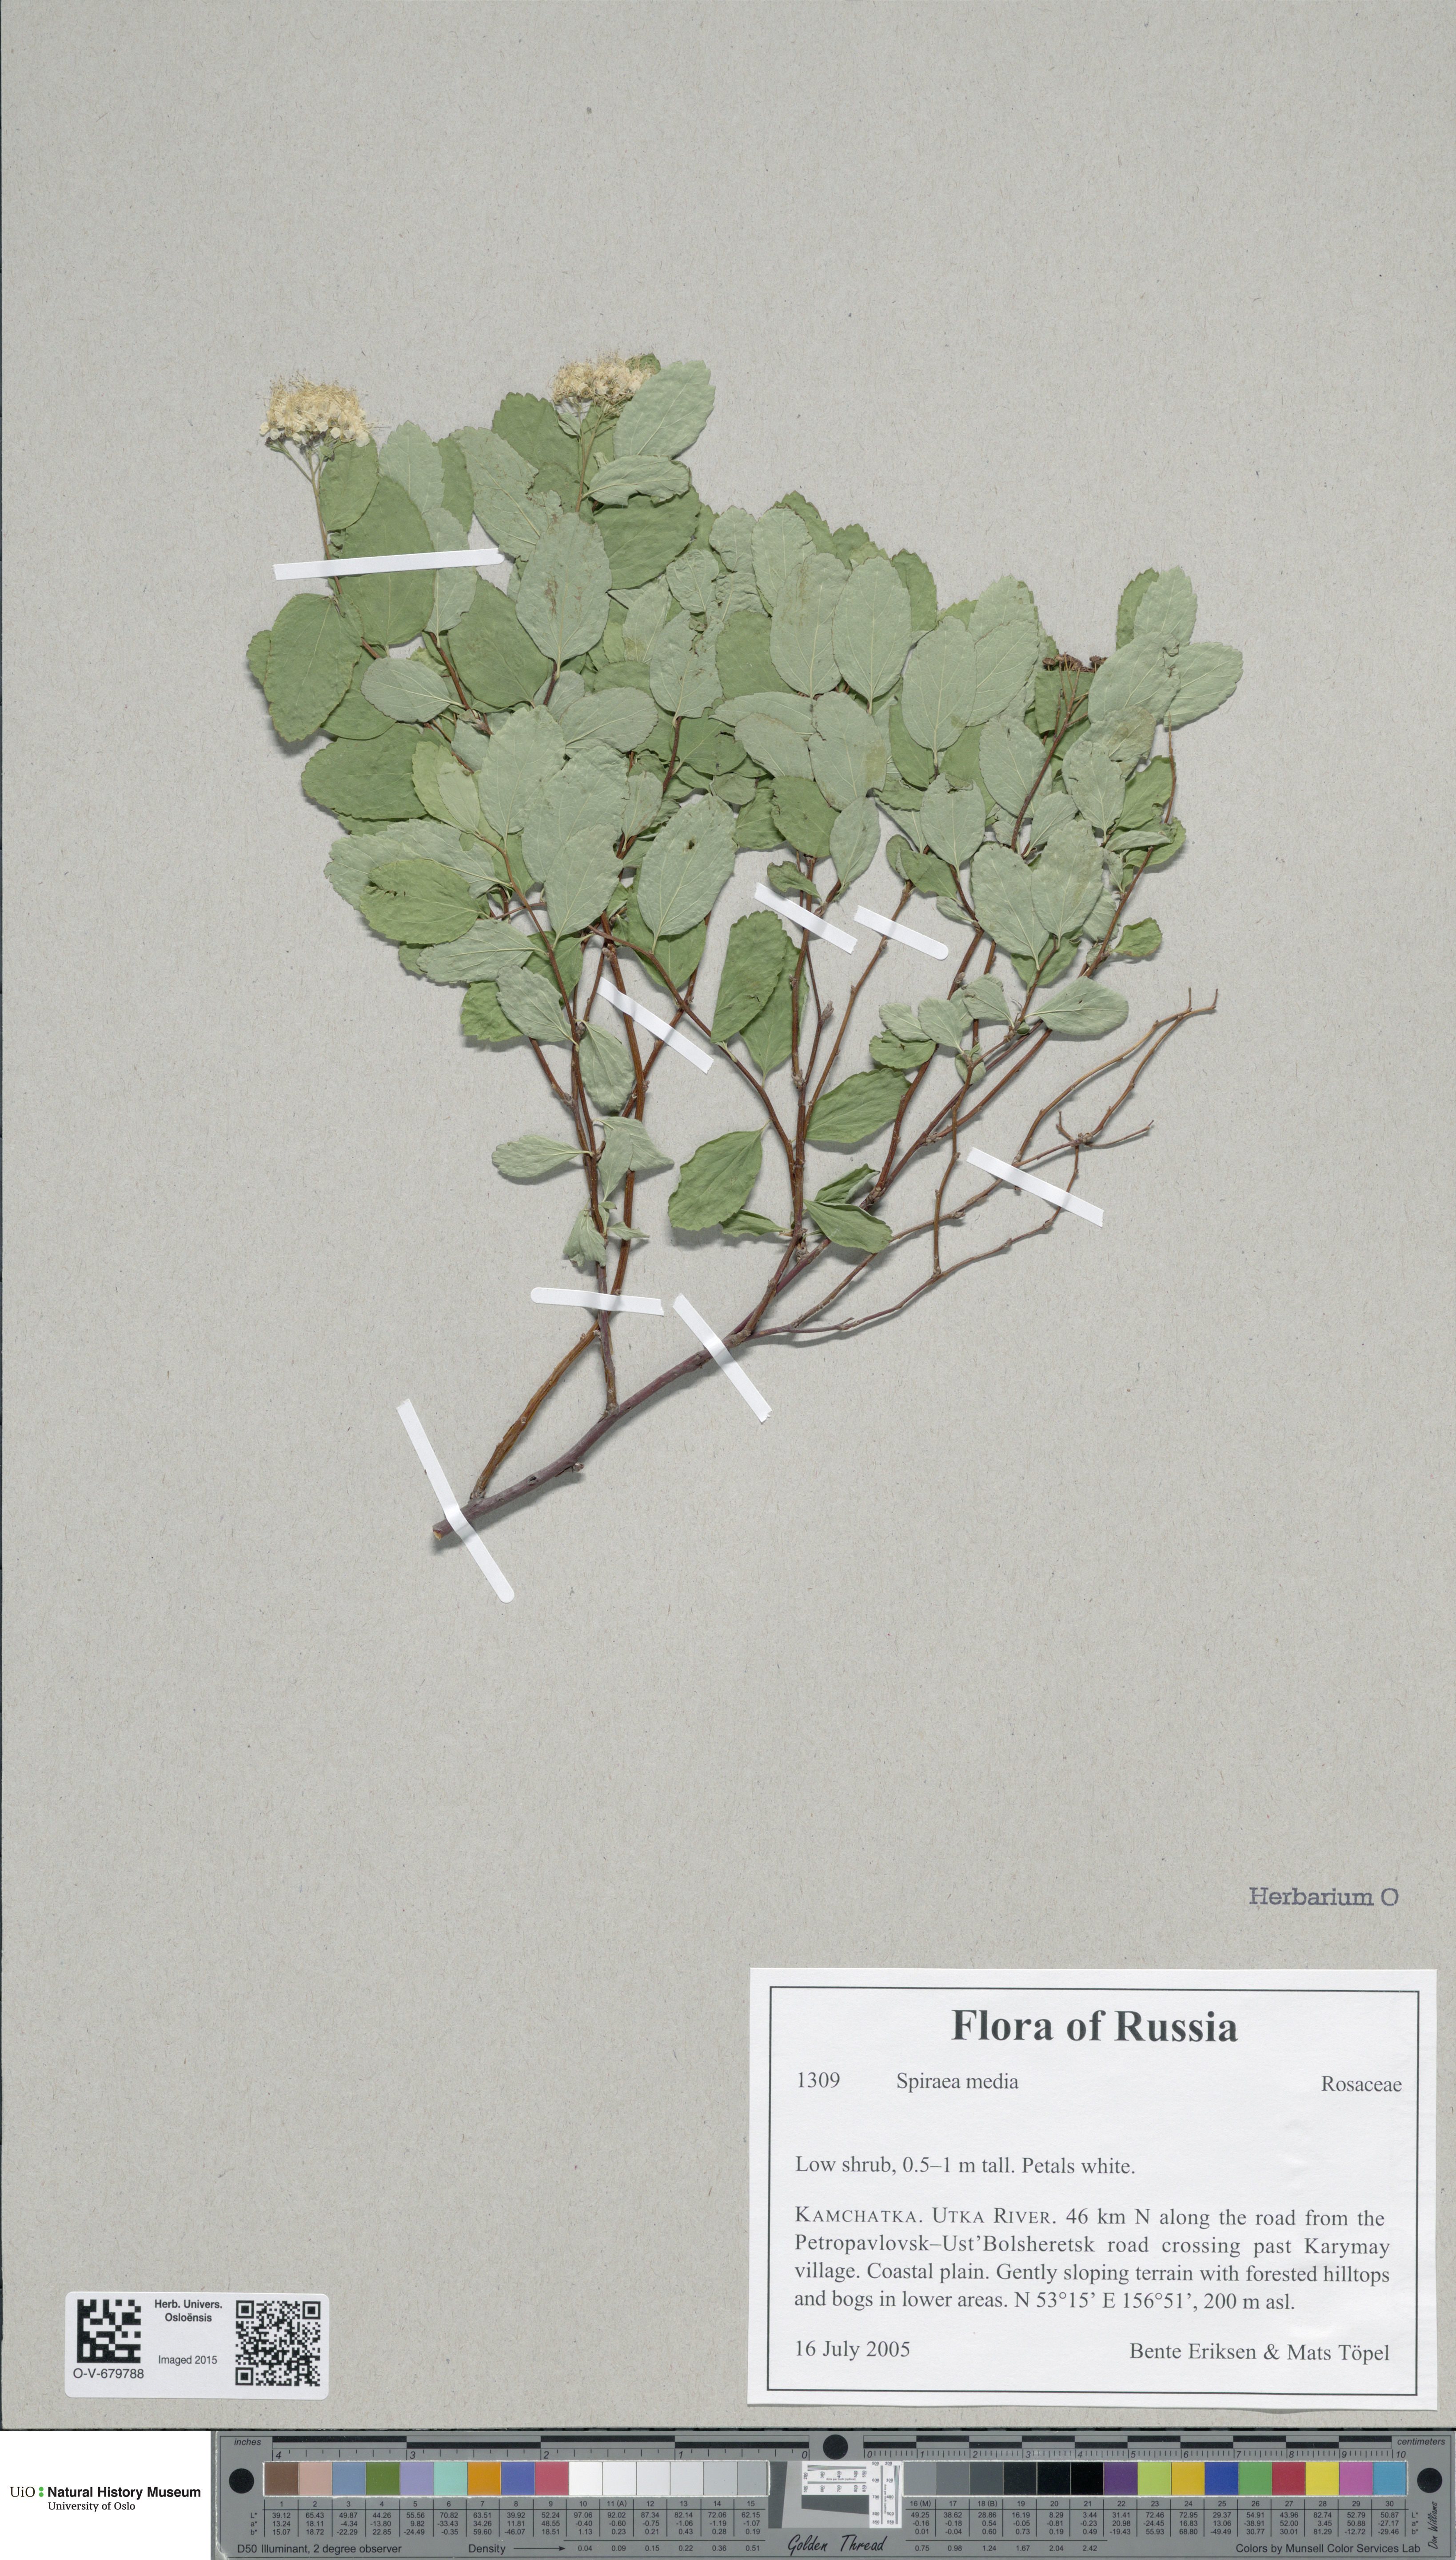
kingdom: Plantae
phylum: Tracheophyta
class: Magnoliopsida
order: Rosales
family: Rosaceae
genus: Spiraea
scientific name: Spiraea media
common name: Russian spiraea
